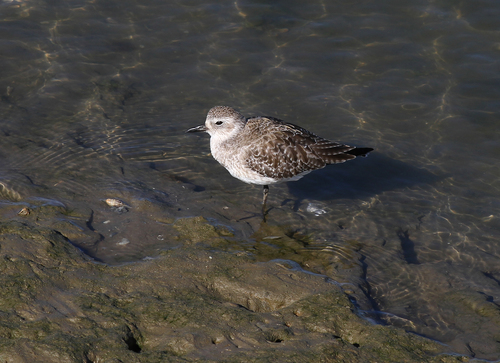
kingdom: Animalia
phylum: Chordata
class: Aves
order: Charadriiformes
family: Charadriidae
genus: Pluvialis
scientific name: Pluvialis squatarola
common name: Grey plover
